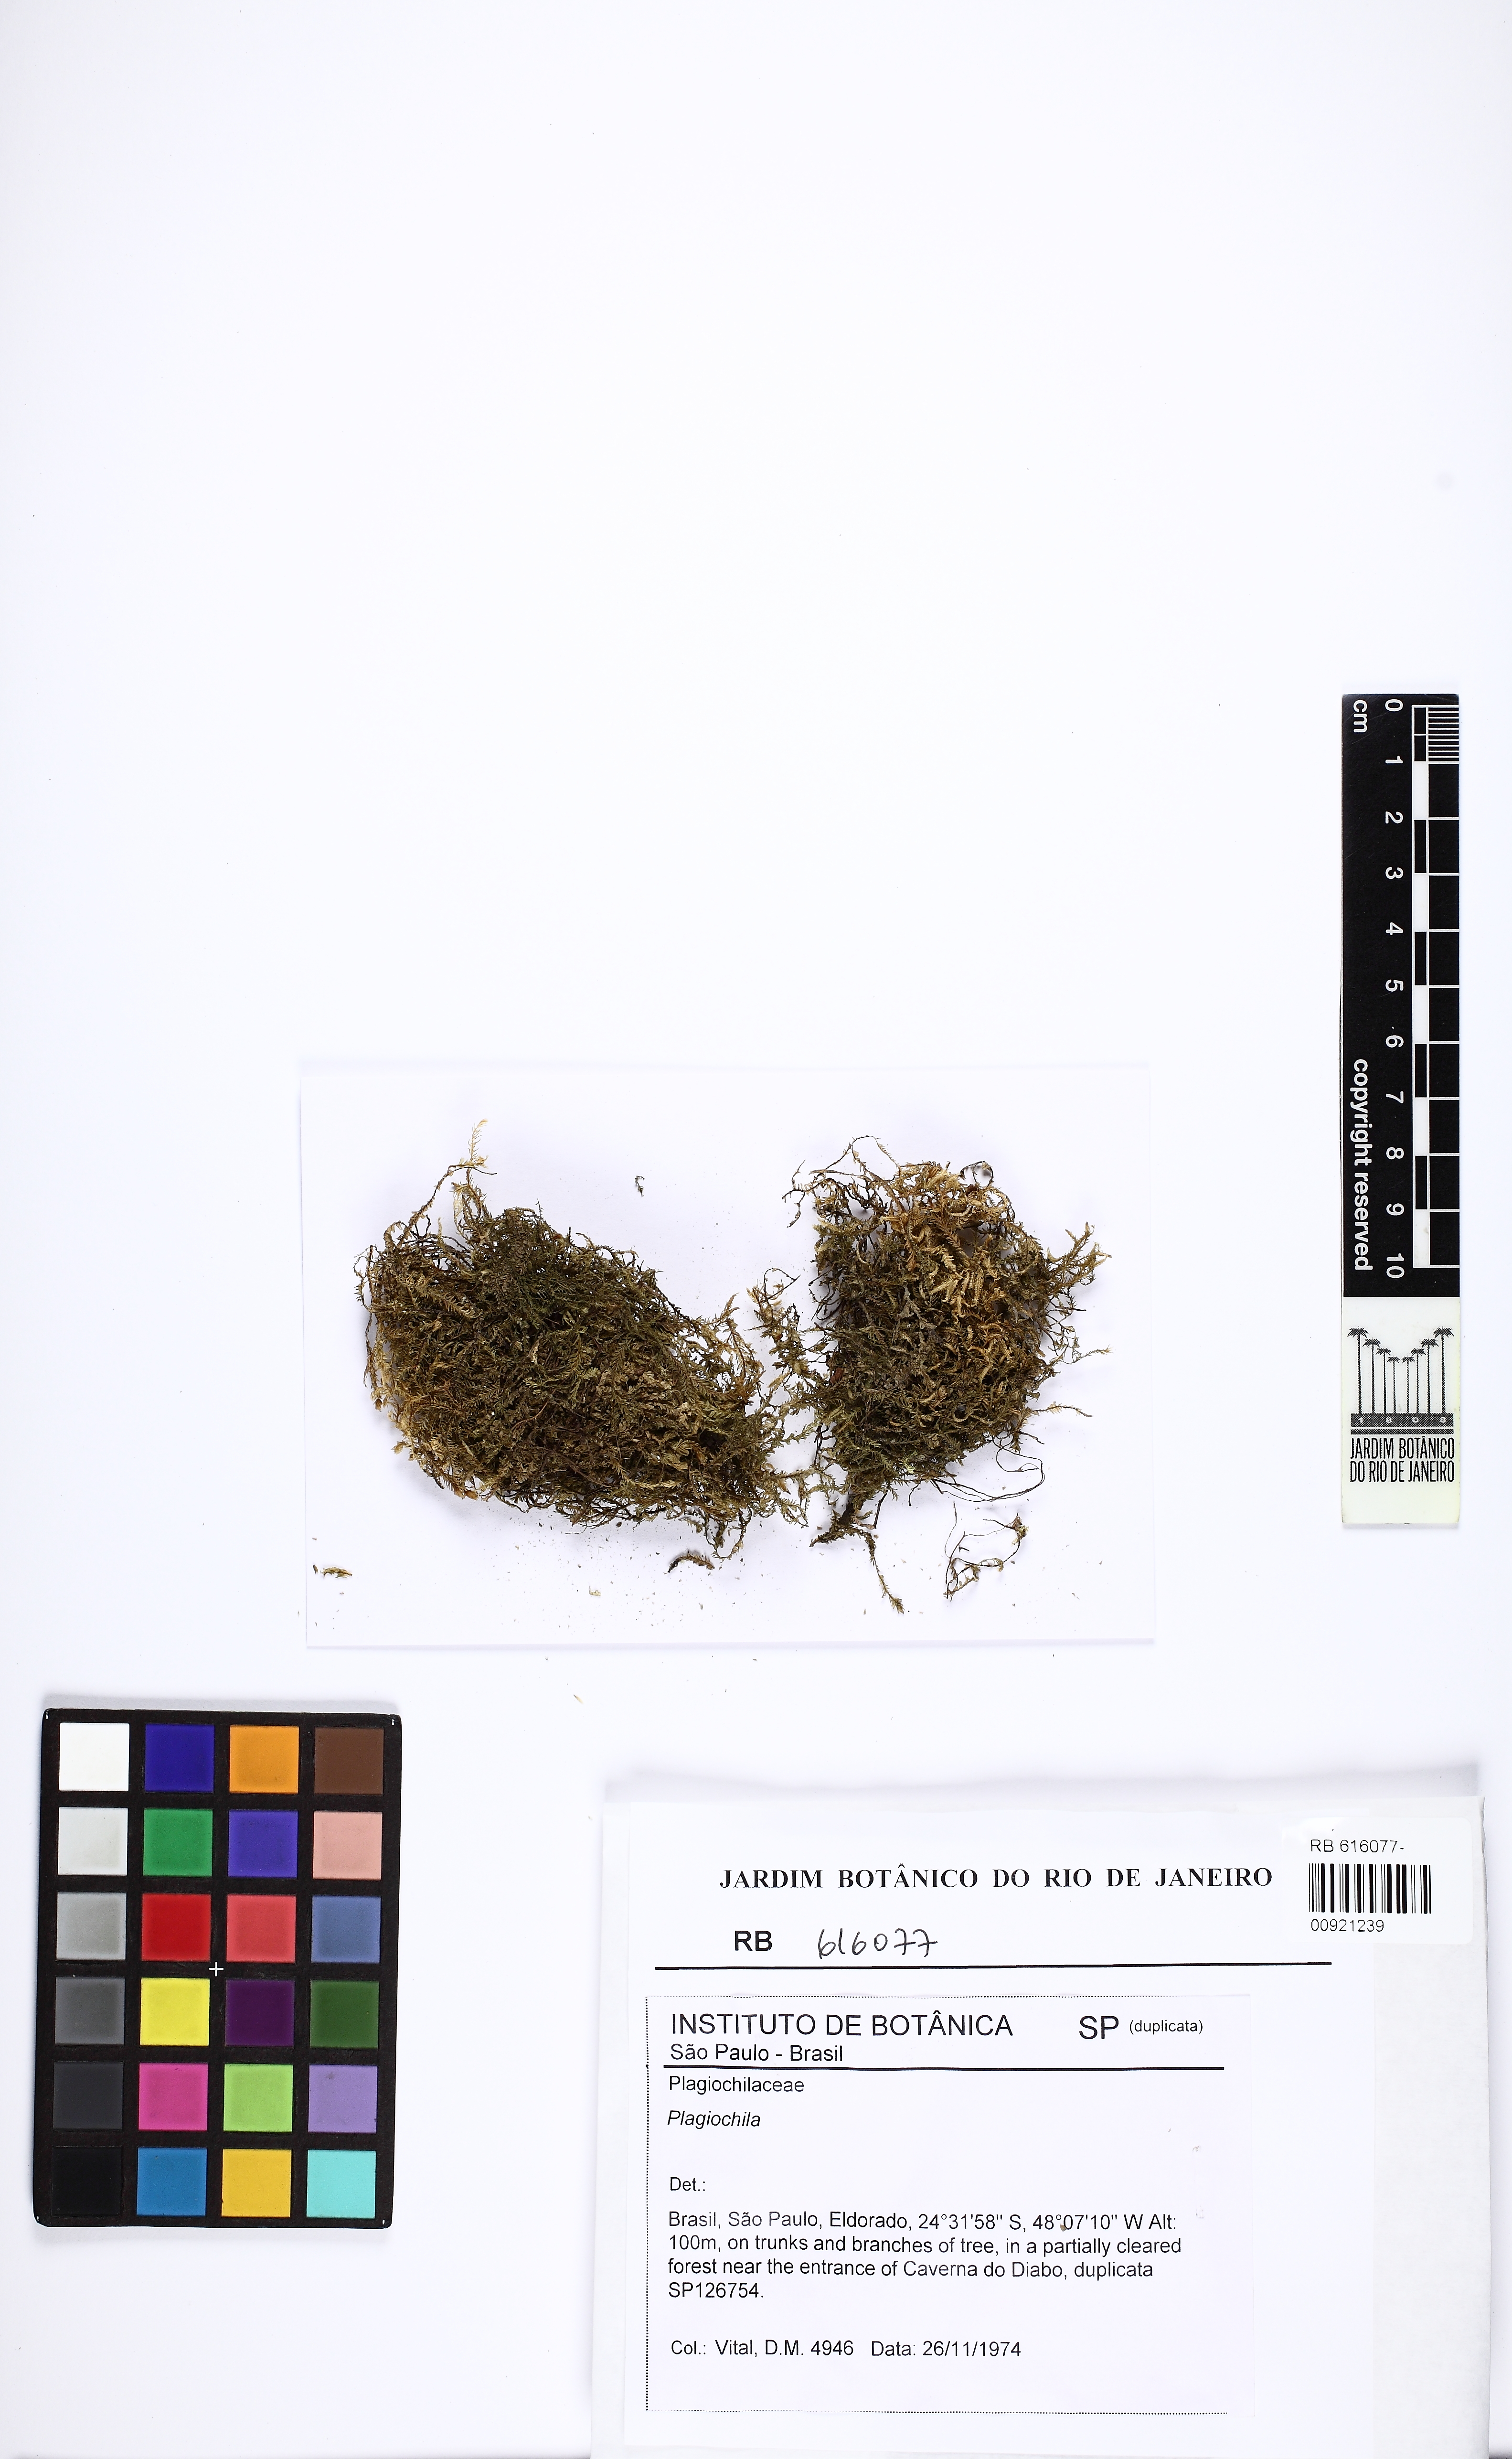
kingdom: Plantae
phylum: Marchantiophyta
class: Jungermanniopsida
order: Jungermanniales
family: Plagiochilaceae
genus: Plagiochila
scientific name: Plagiochila crispabilis
